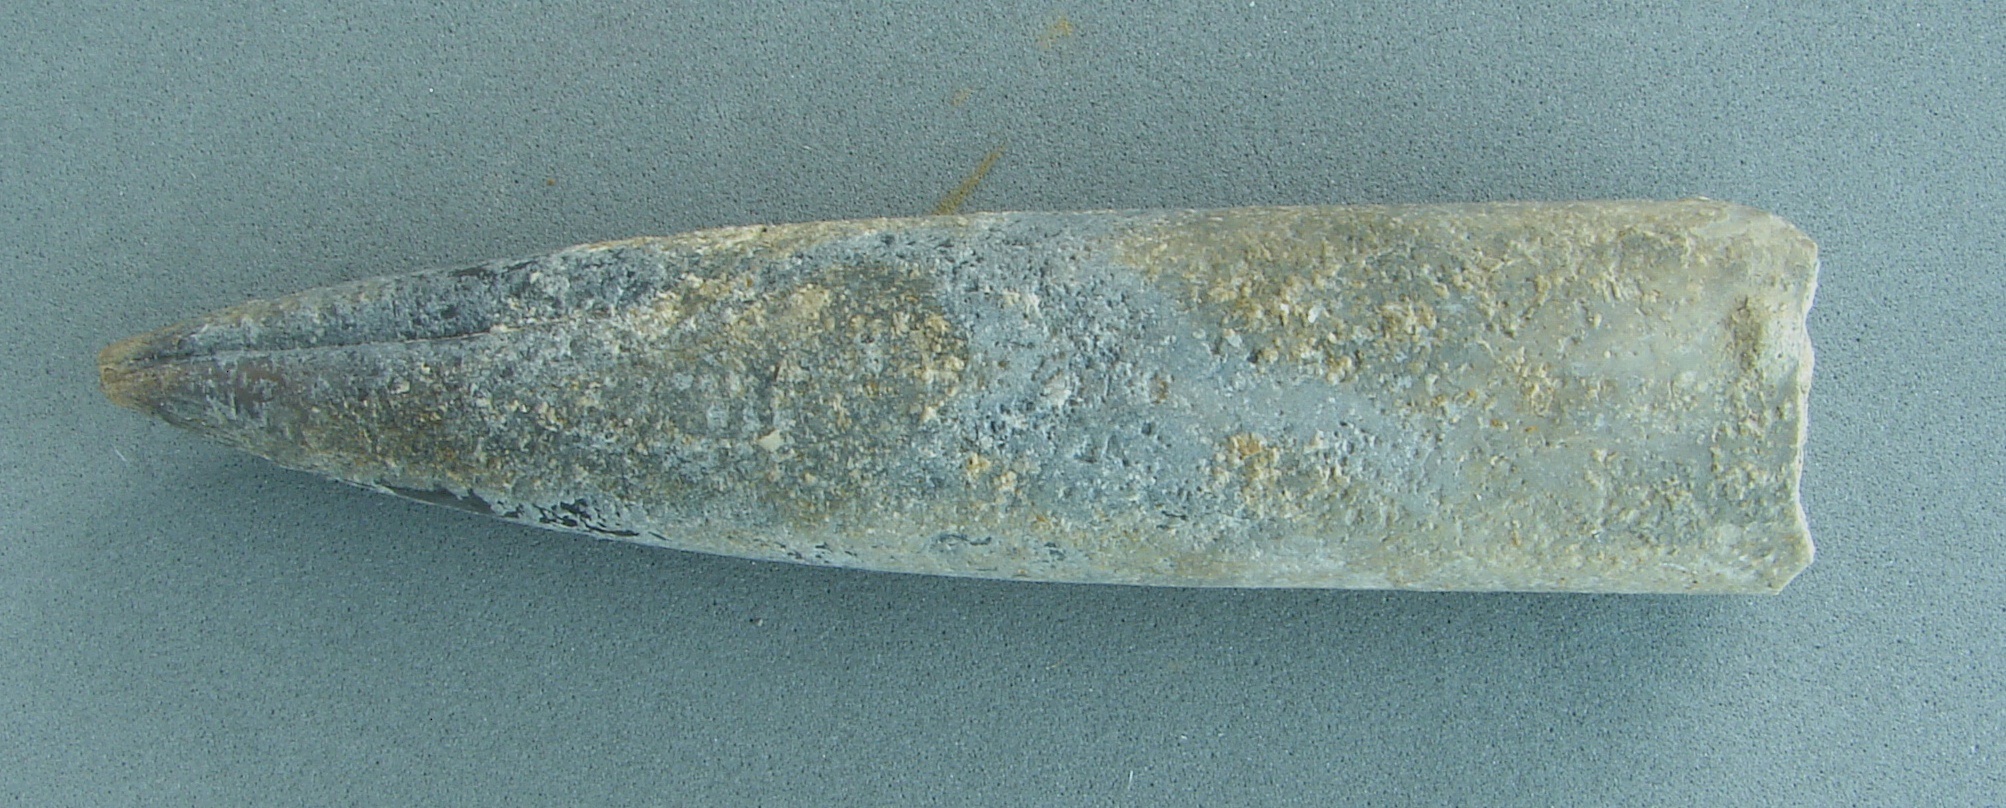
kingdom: Animalia
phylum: Mollusca
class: Cephalopoda
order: Belemnitida
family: Megateuthididae
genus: Acrocoelites
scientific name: Acrocoelites
